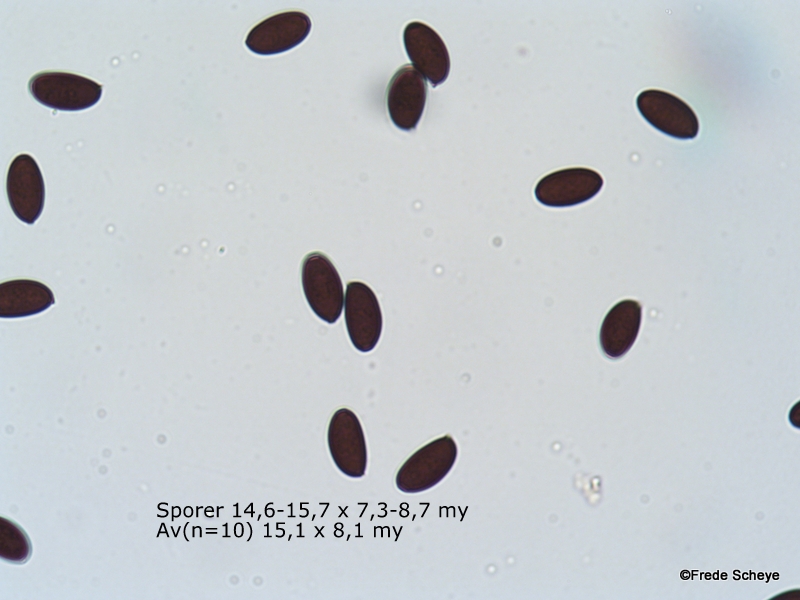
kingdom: Fungi
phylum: Basidiomycota
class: Agaricomycetes
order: Agaricales
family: Psathyrellaceae
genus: Parasola
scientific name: Parasola conopilea
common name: kegle-hjulhat
